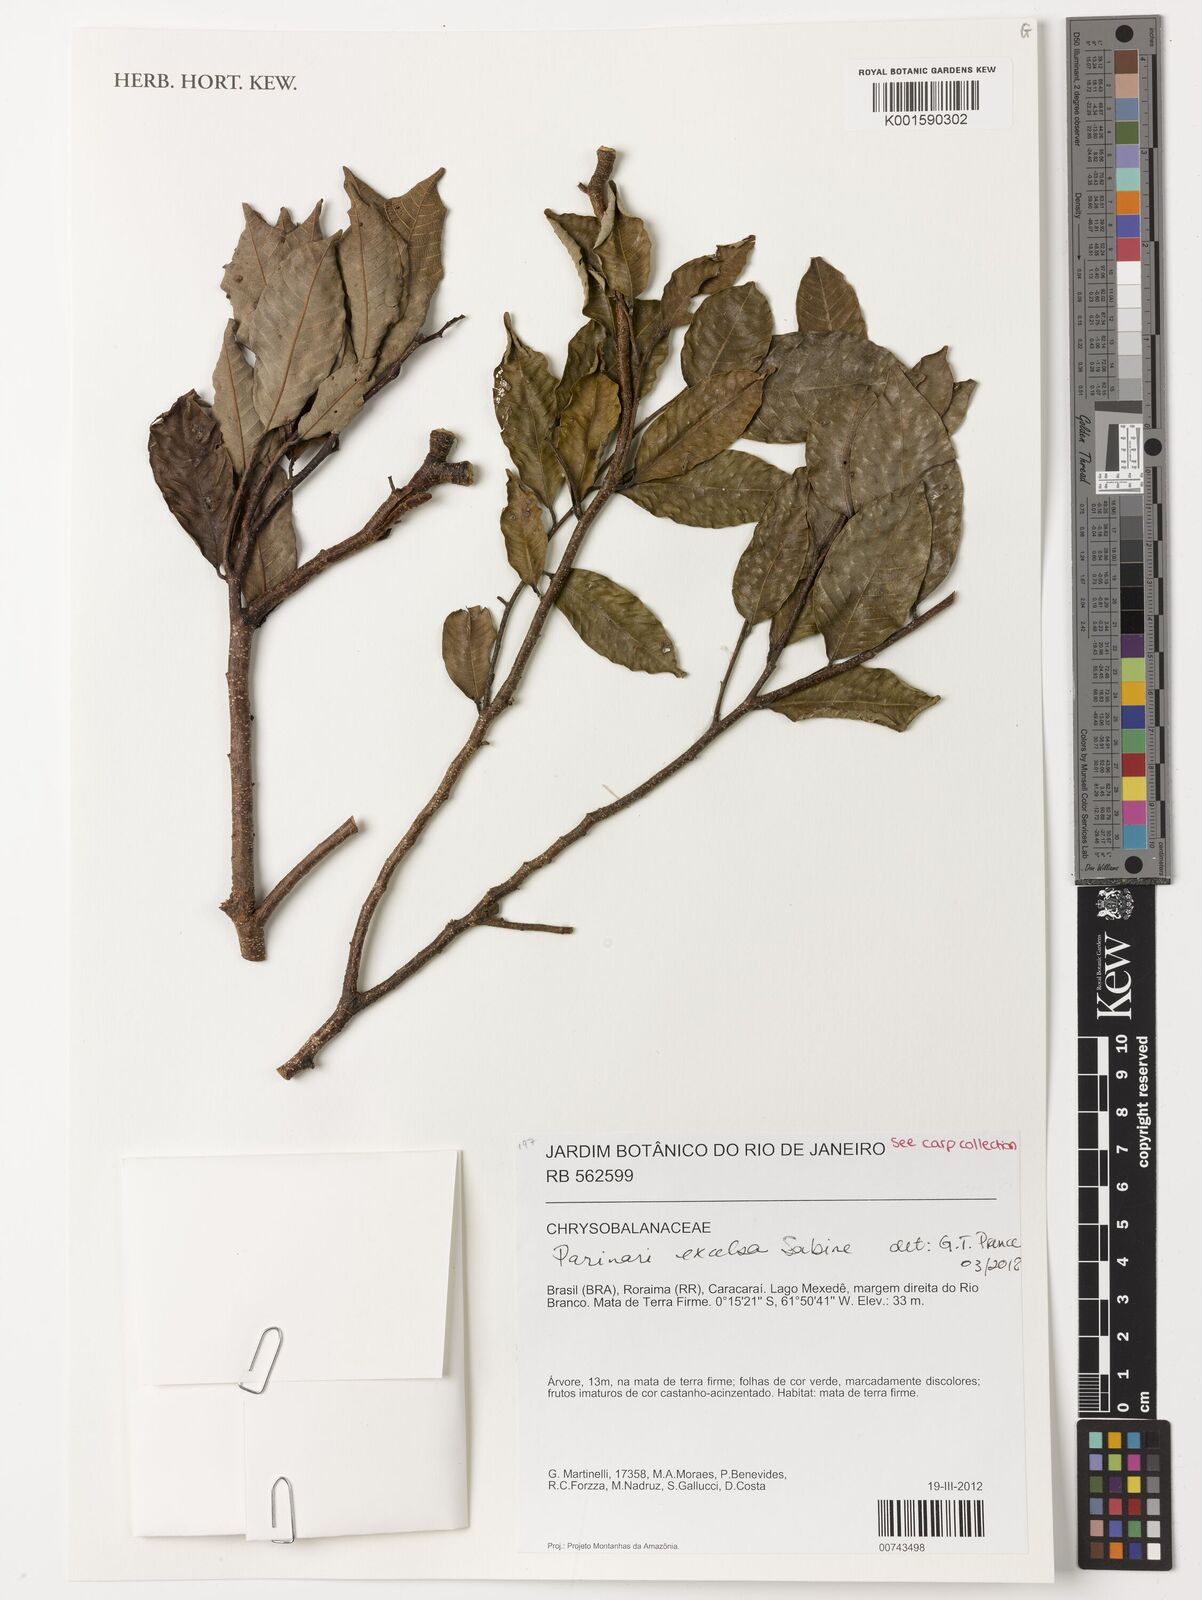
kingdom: Plantae
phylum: Tracheophyta
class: Magnoliopsida
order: Malpighiales
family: Chrysobalanaceae
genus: Parinari
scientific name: Parinari excelsa
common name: Guinea-plum
